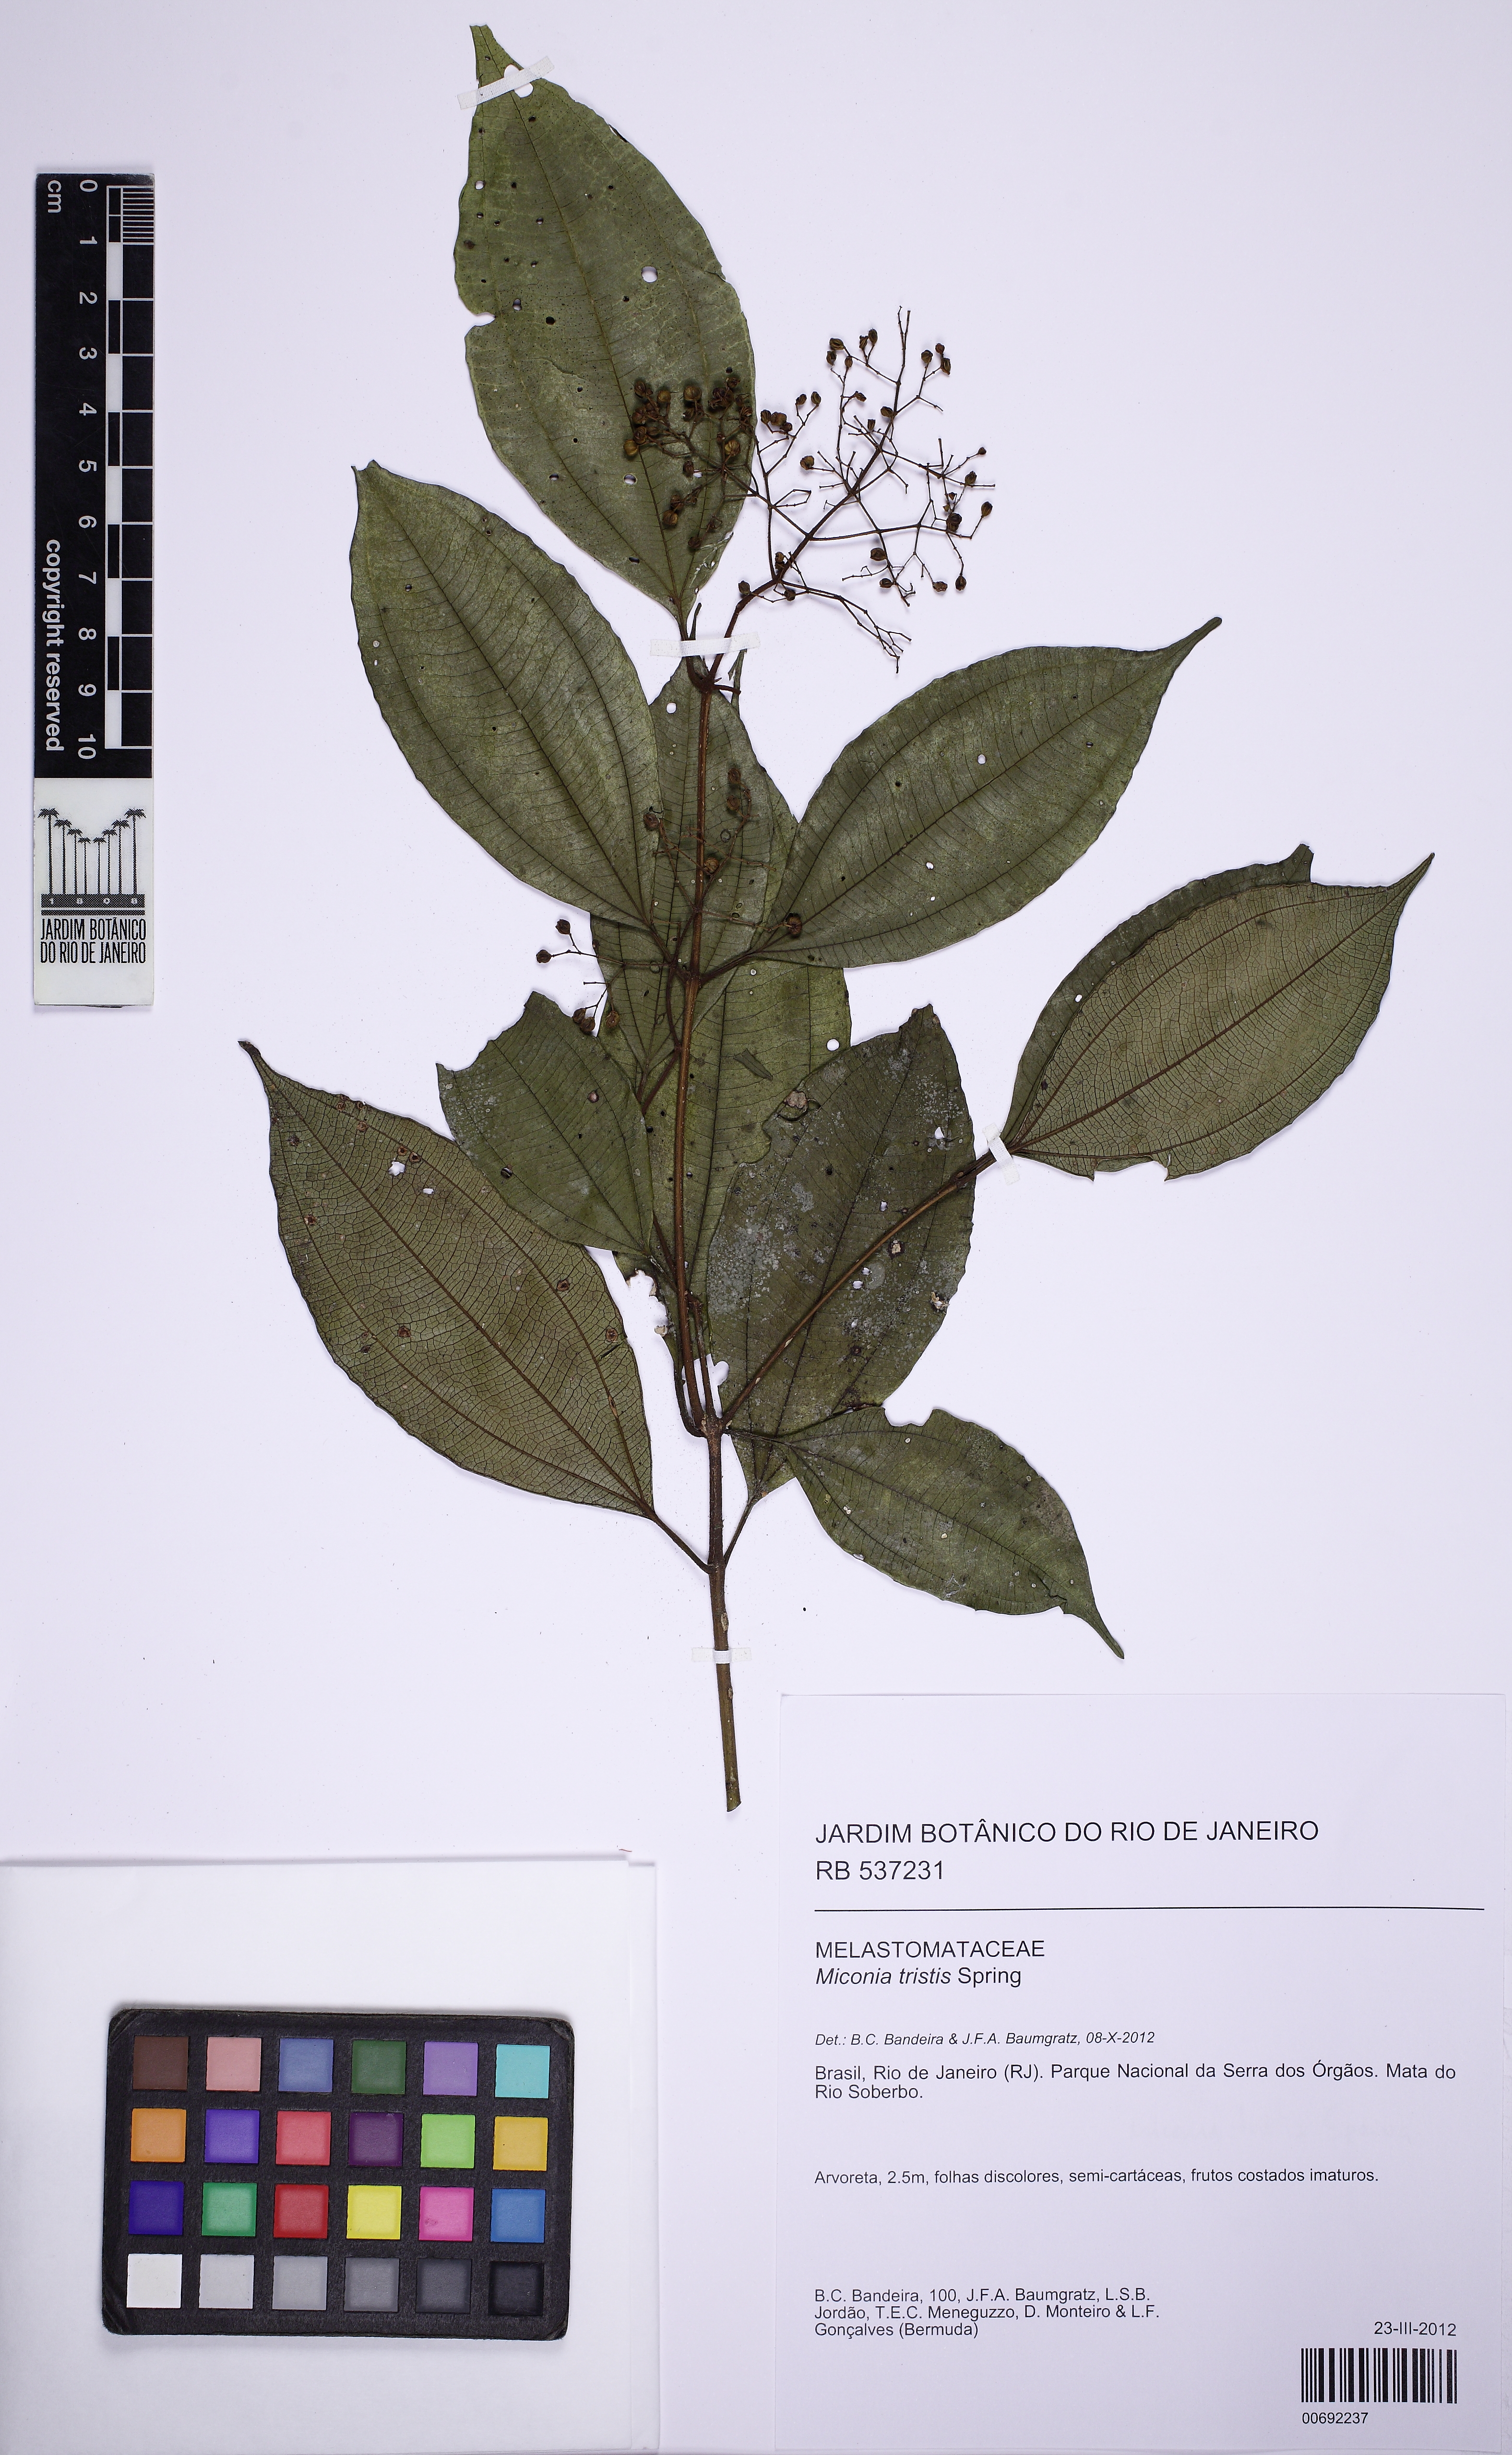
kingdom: Plantae
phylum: Tracheophyta
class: Magnoliopsida
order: Myrtales
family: Melastomataceae
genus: Miconia
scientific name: Miconia tristis
